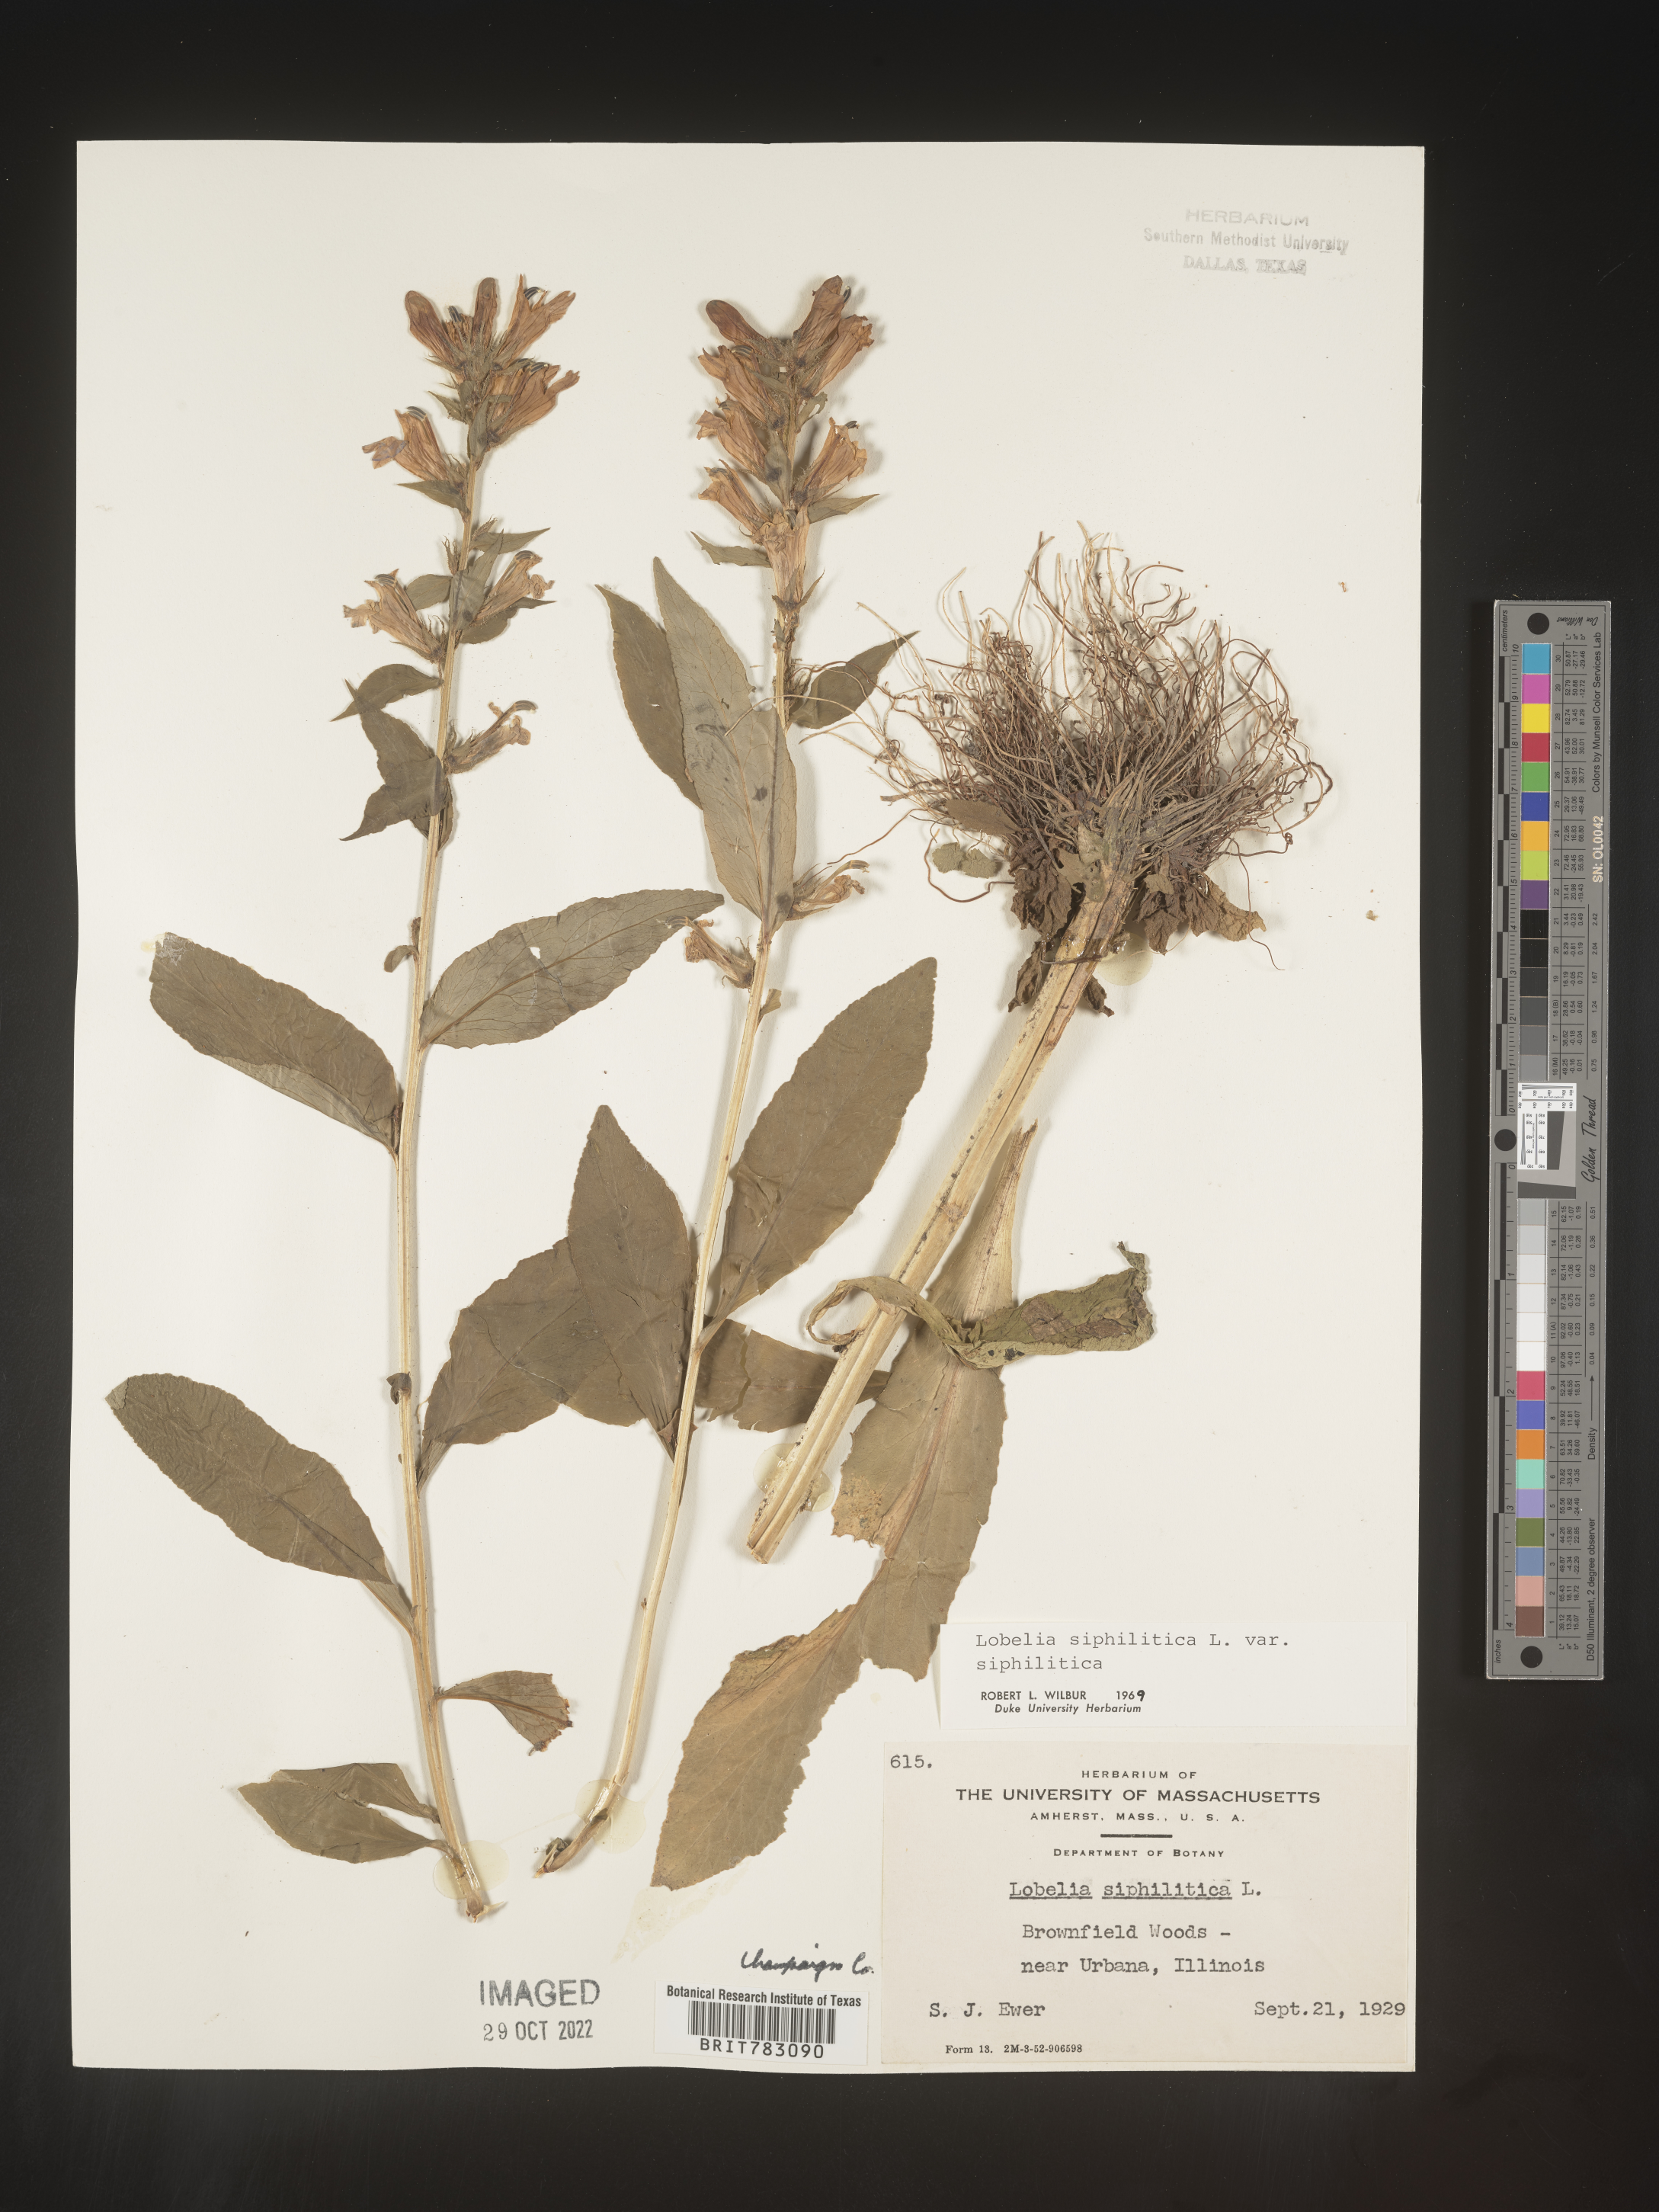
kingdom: Plantae
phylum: Tracheophyta
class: Magnoliopsida
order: Asterales
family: Campanulaceae
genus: Lobelia
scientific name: Lobelia siphilitica
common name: Great lobelia
